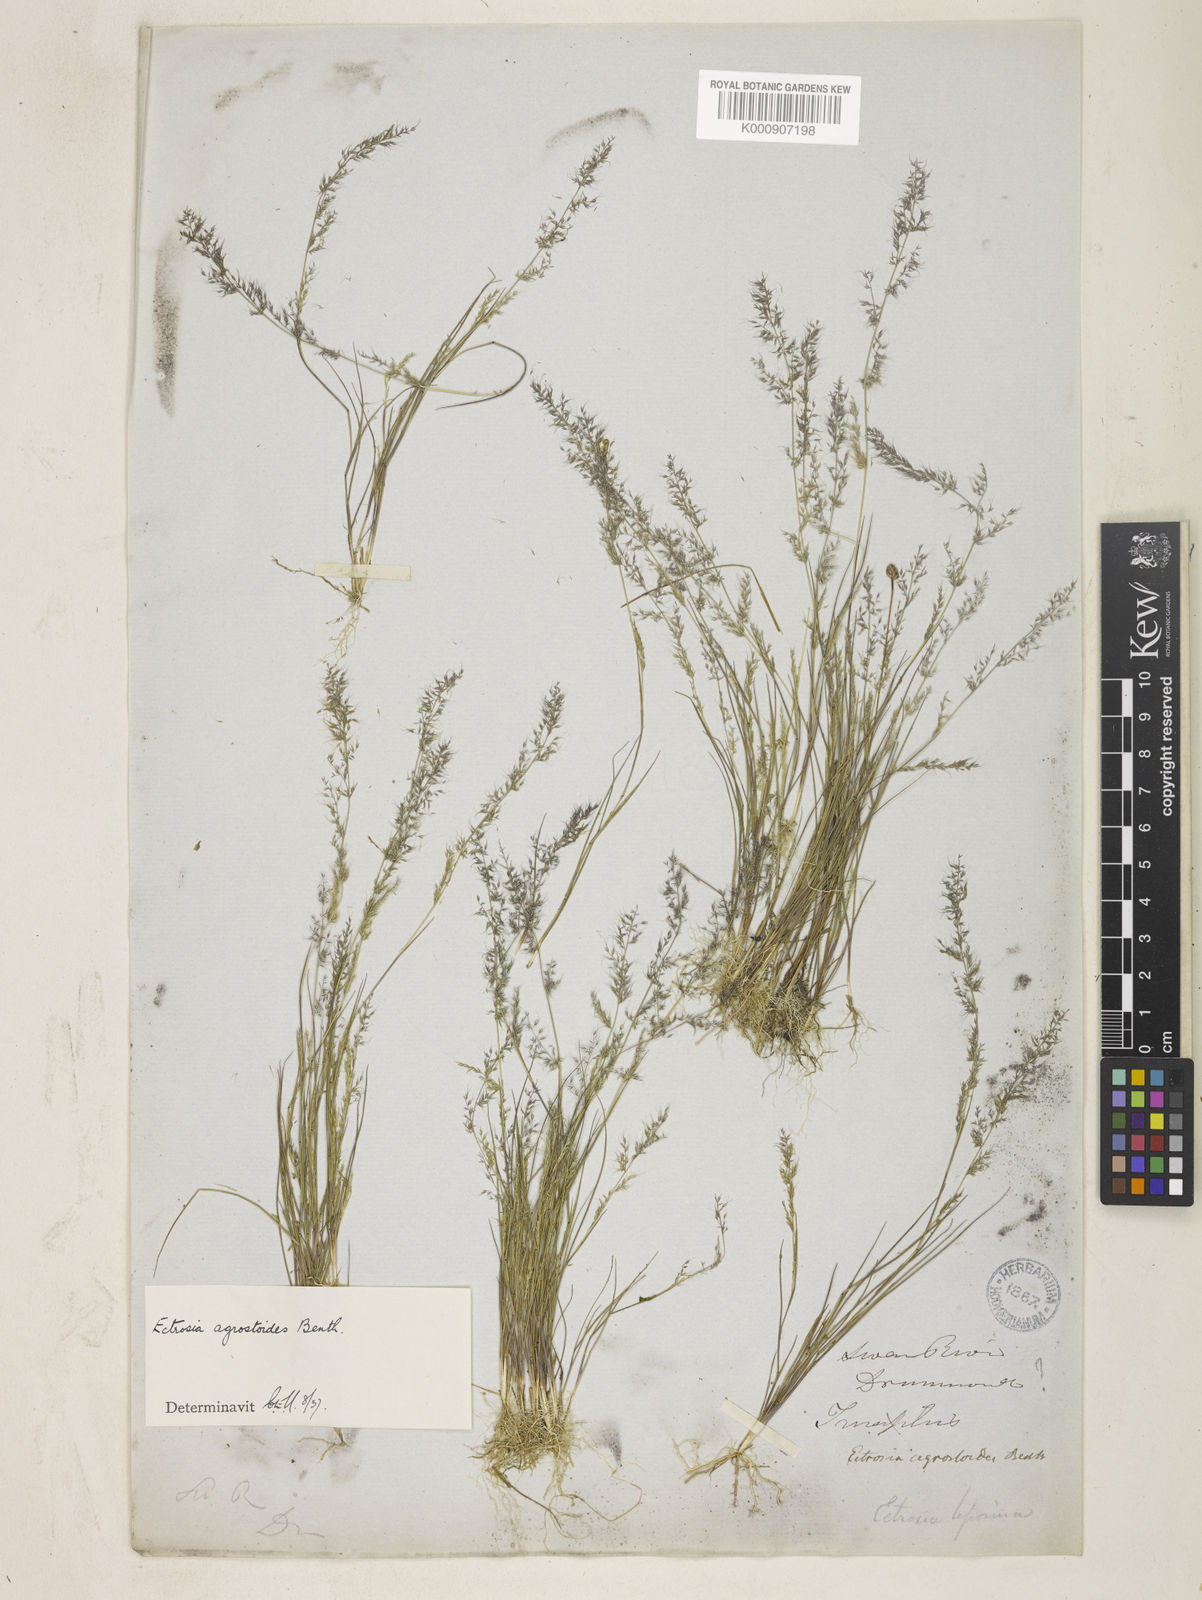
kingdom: Plantae
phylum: Tracheophyta
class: Liliopsida
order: Poales
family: Poaceae
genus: Eragrostis
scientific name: Eragrostis agrostoides
